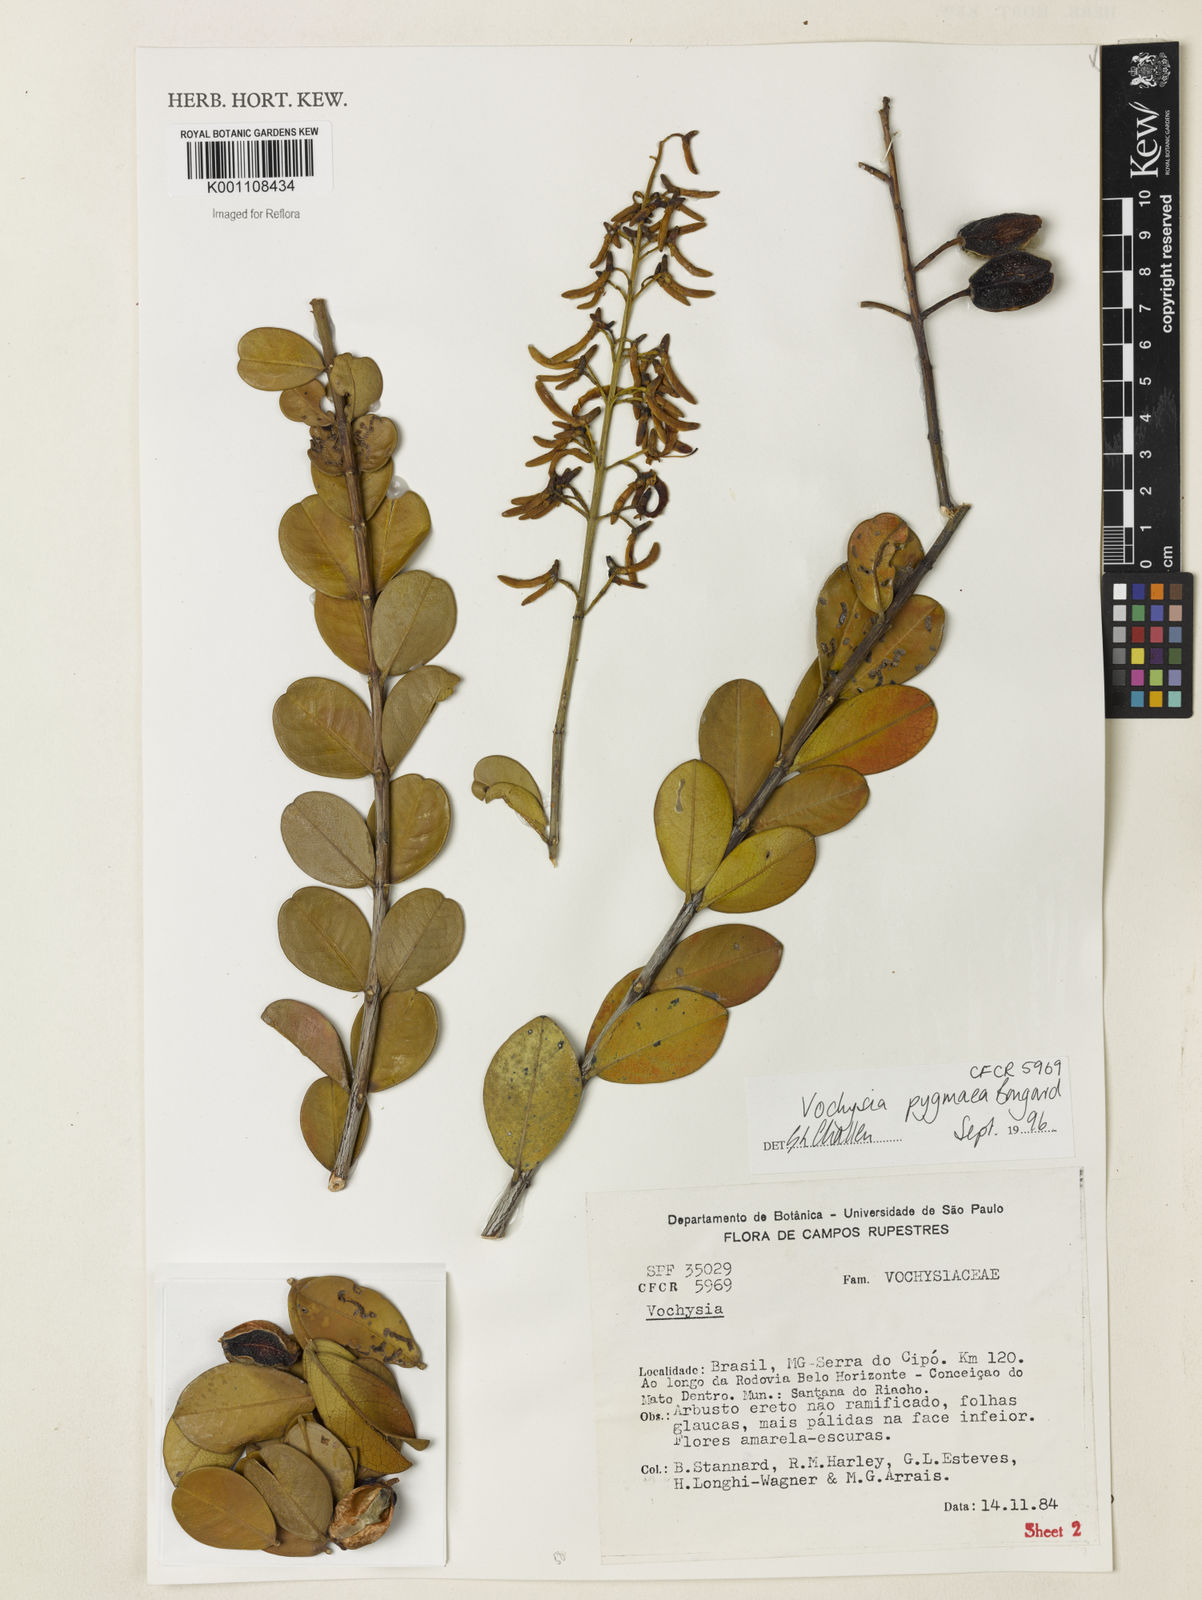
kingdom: Plantae
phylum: Tracheophyta
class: Magnoliopsida
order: Myrtales
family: Vochysiaceae
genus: Vochysia
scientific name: Vochysia pygmaea
